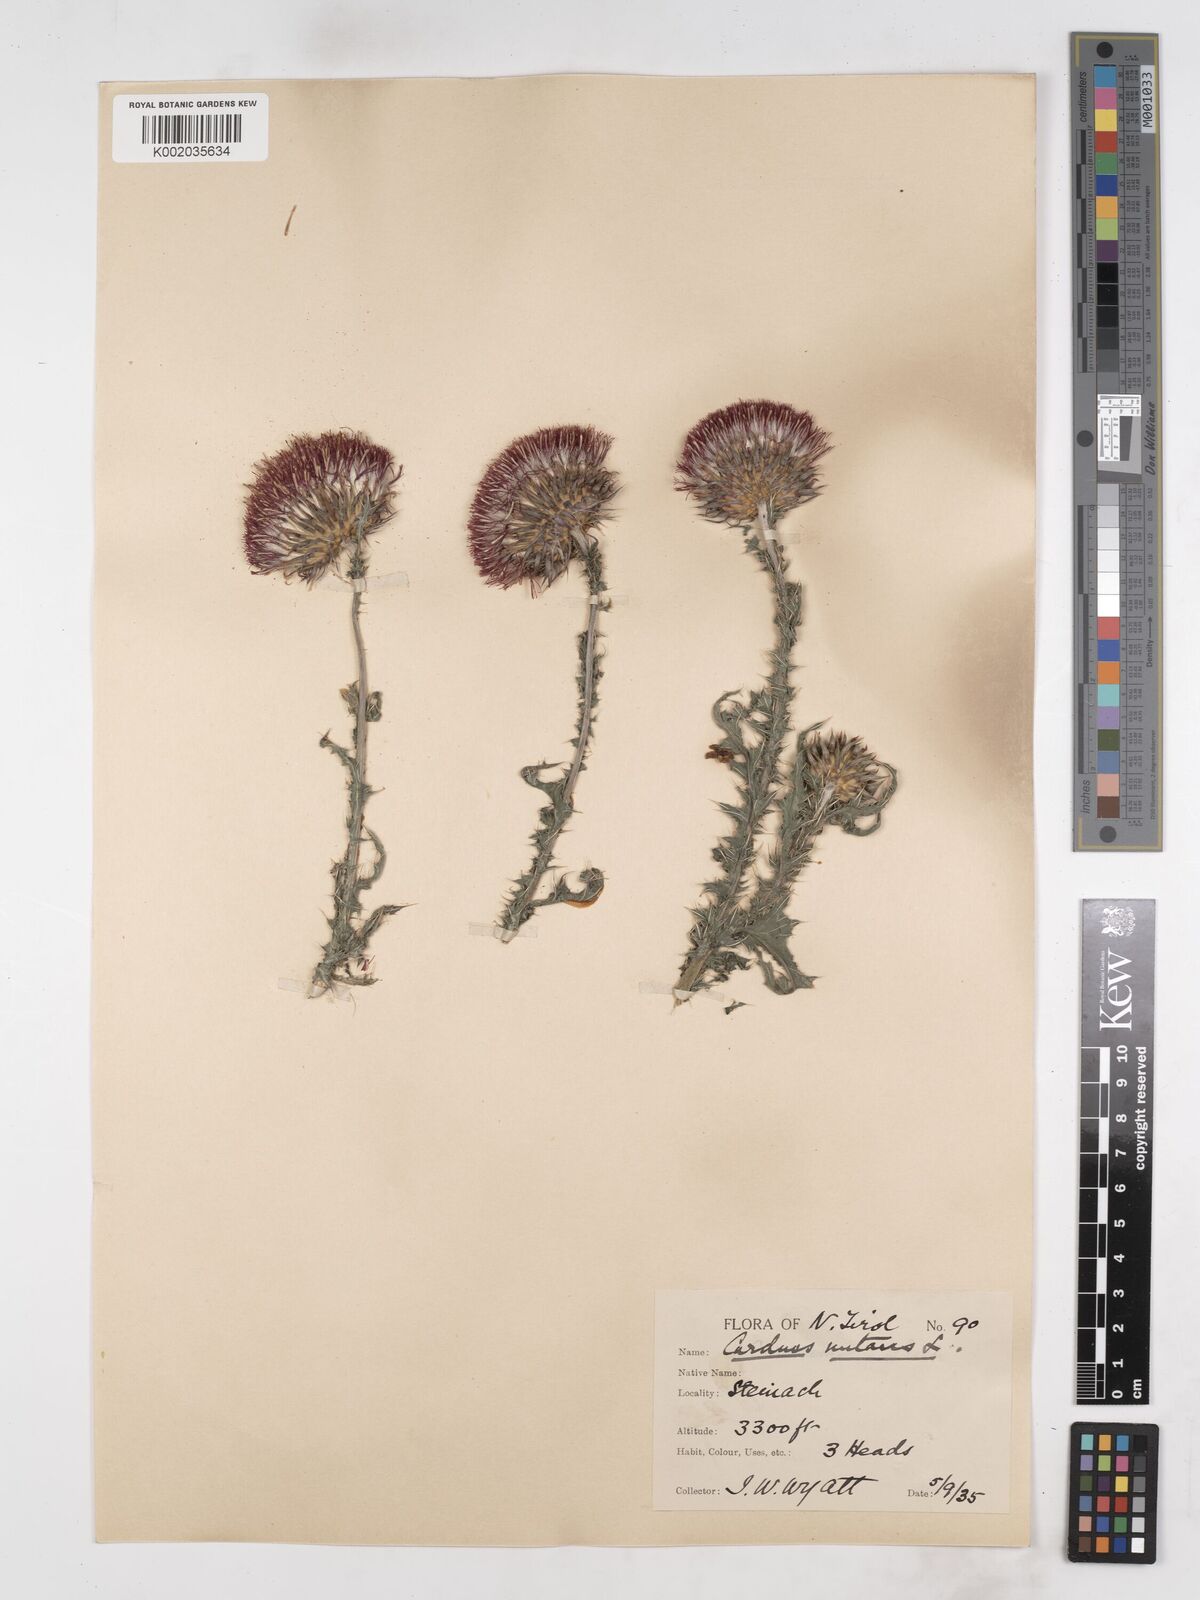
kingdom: Plantae
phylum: Tracheophyta
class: Magnoliopsida
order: Asterales
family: Asteraceae
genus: Carduus
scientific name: Carduus nutans
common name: Musk thistle
